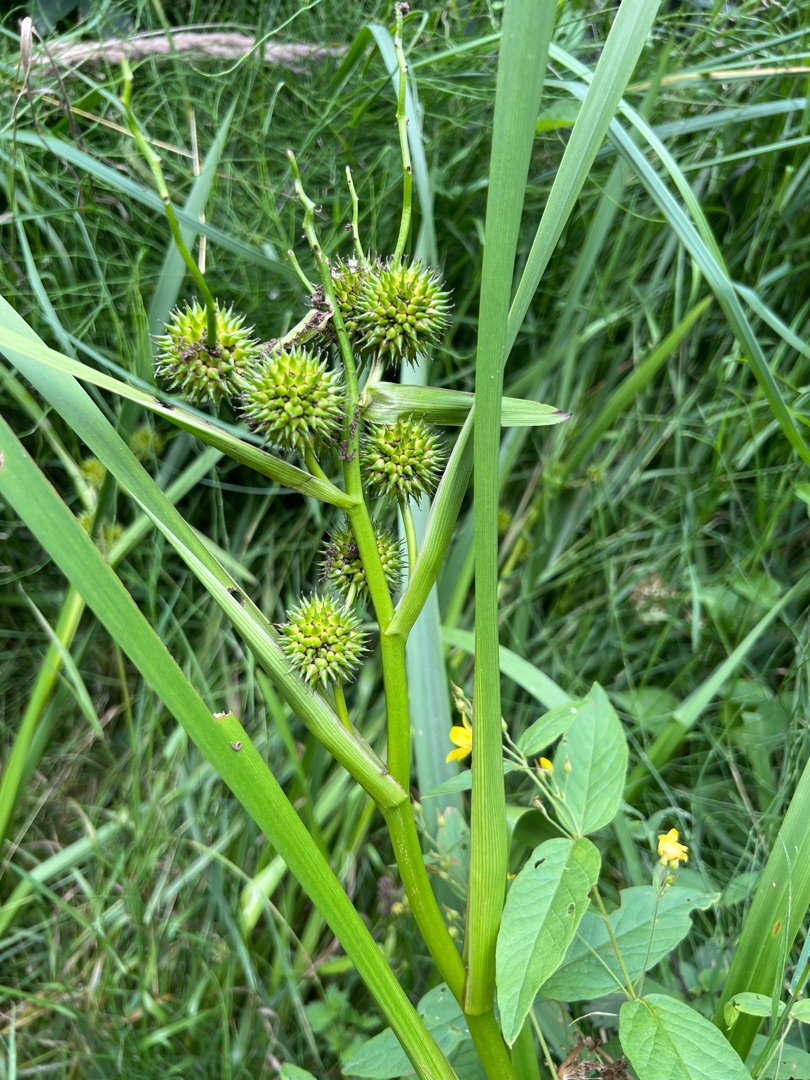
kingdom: Plantae
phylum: Tracheophyta
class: Liliopsida
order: Poales
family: Typhaceae
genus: Sparganium
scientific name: Sparganium erectum
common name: Grenet pindsvineknop
